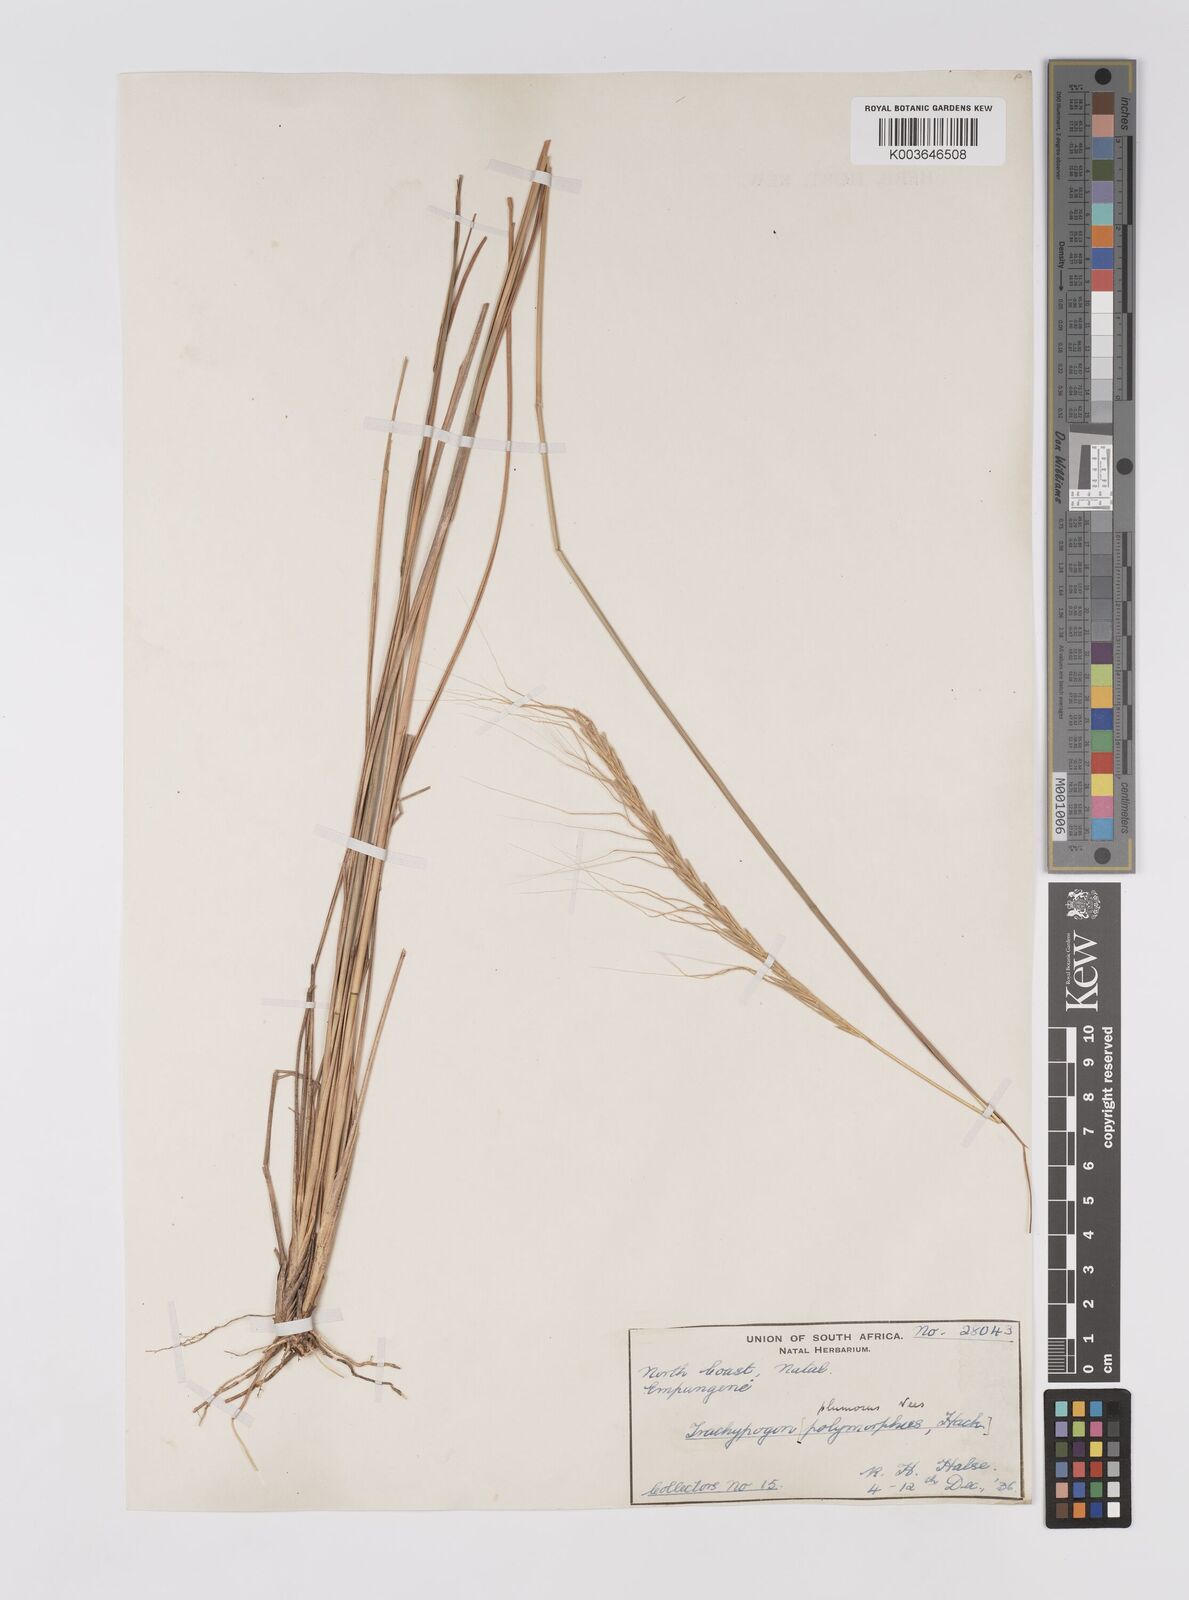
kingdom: Plantae
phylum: Tracheophyta
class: Liliopsida
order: Poales
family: Poaceae
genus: Trachypogon
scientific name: Trachypogon spicatus
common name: Crinkle-awn
